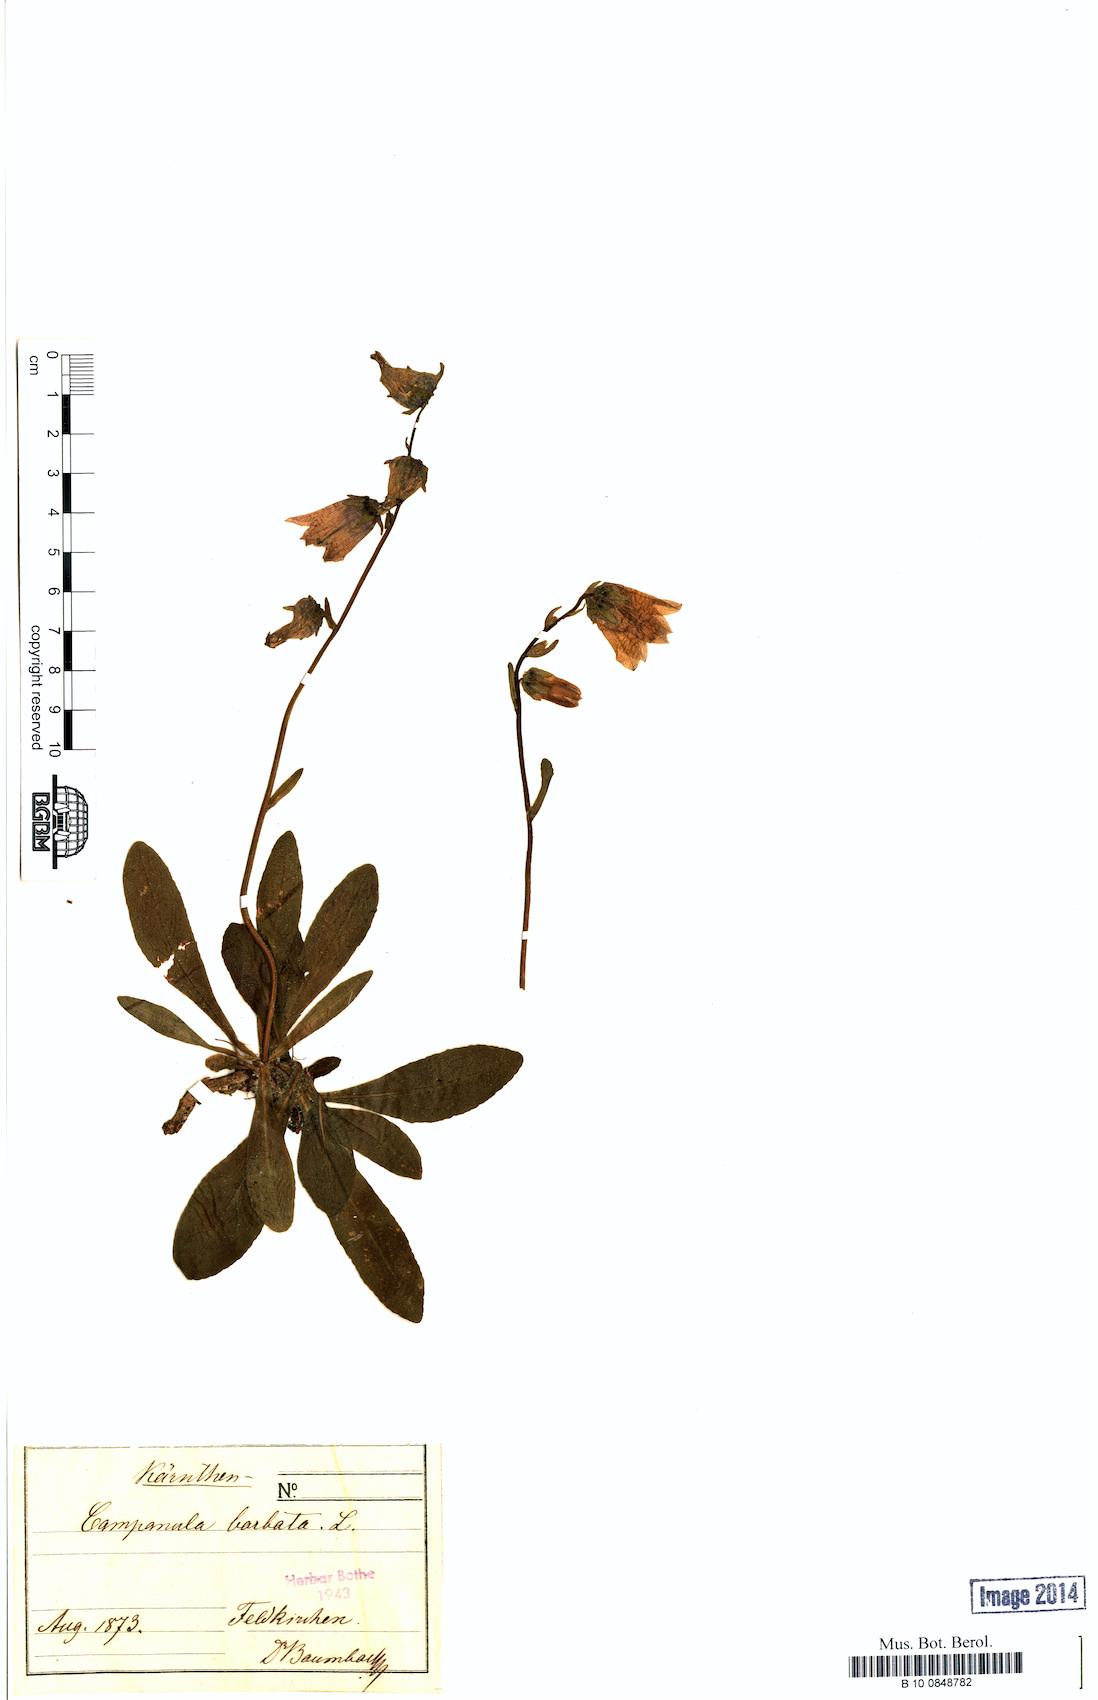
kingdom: Plantae
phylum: Tracheophyta
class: Magnoliopsida
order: Asterales
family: Campanulaceae
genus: Campanula
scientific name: Campanula barbata
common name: Bearded bellflower
